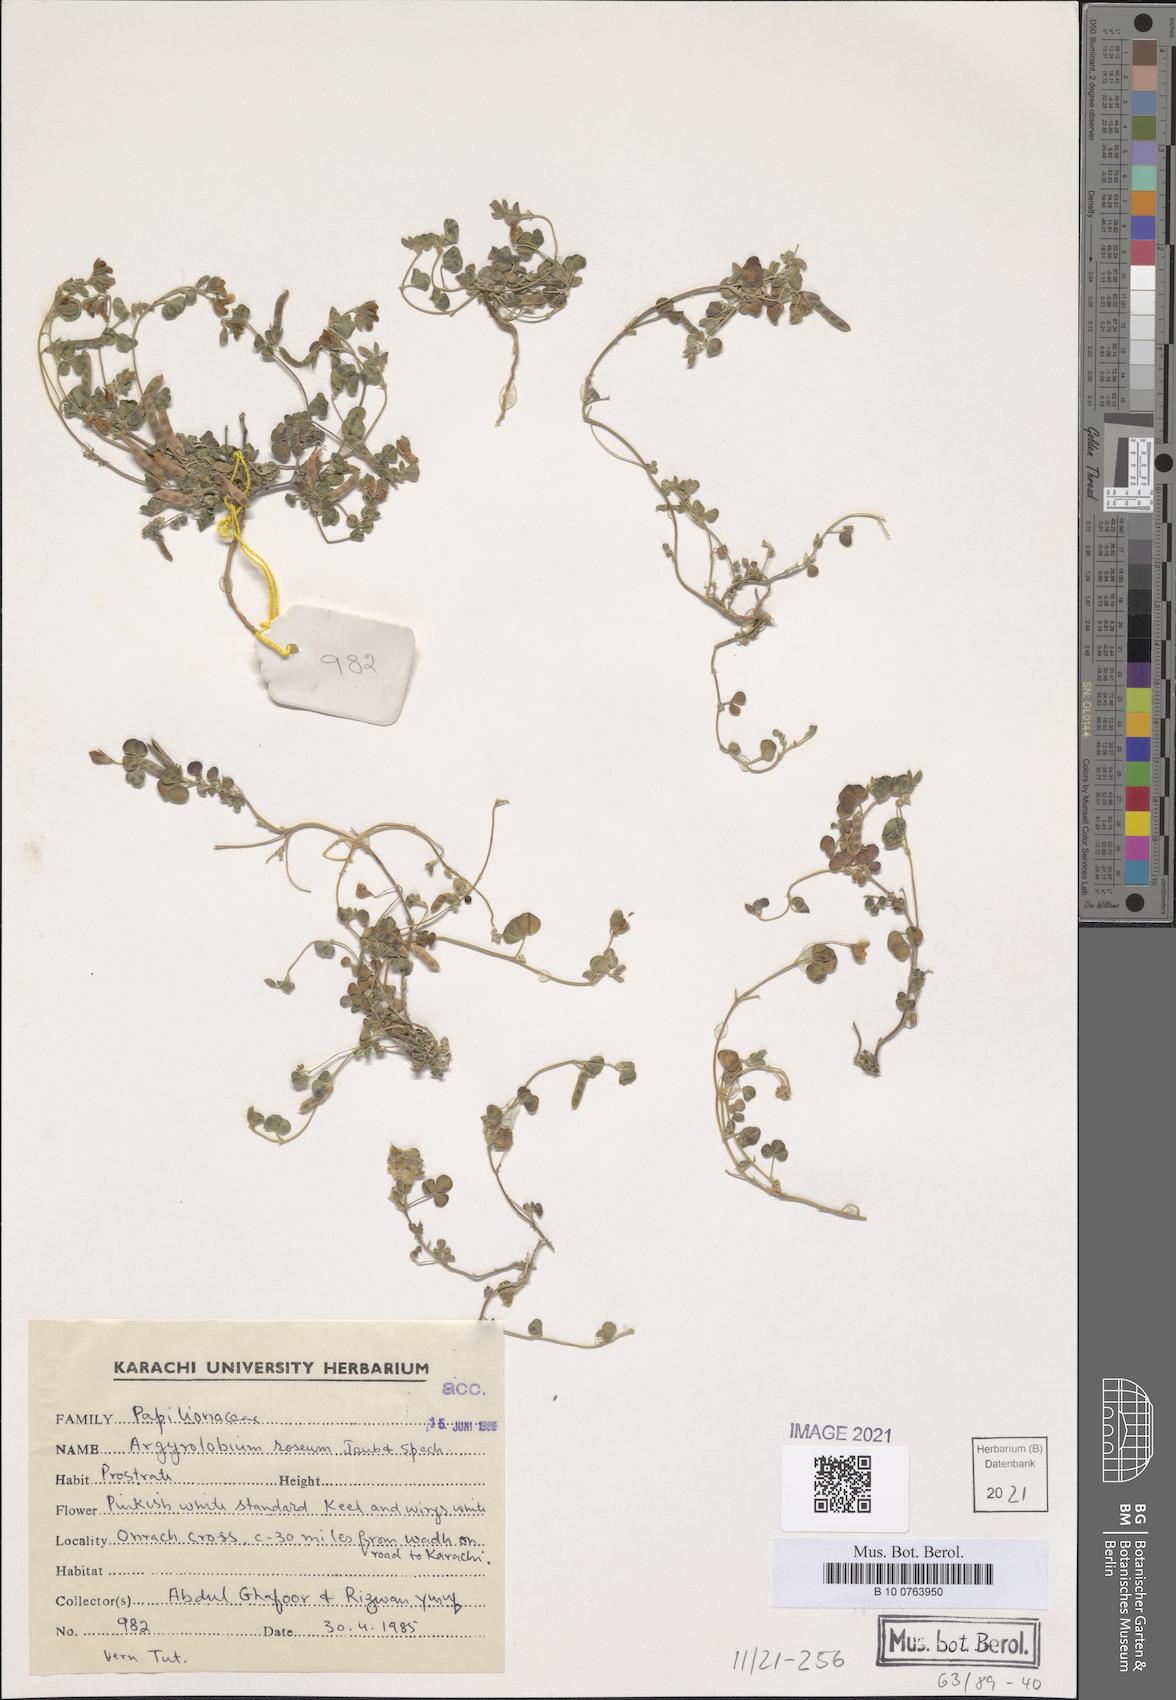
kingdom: Plantae
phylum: Tracheophyta
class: Magnoliopsida
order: Fabales
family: Fabaceae
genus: Argyrolobium
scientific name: Argyrolobium roseum
